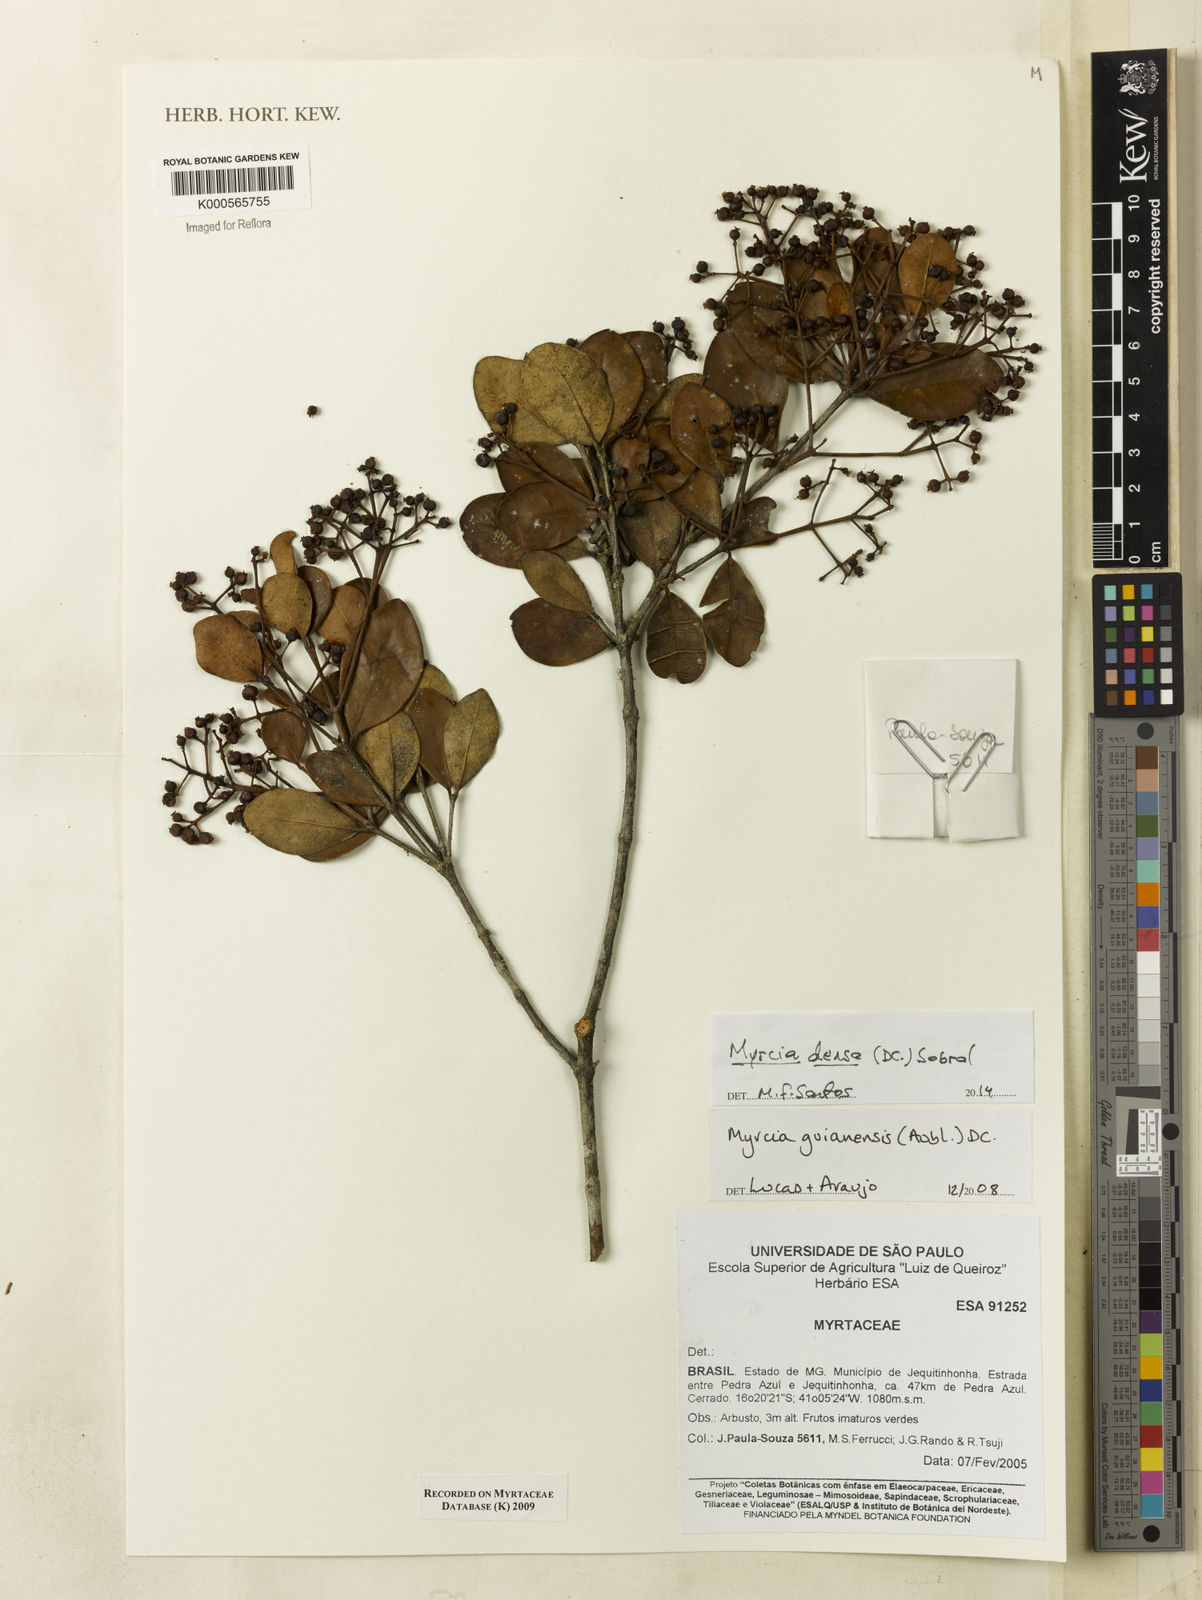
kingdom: Plantae
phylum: Tracheophyta
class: Magnoliopsida
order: Myrtales
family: Myrtaceae
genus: Myrcia
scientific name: Myrcia guianensis
